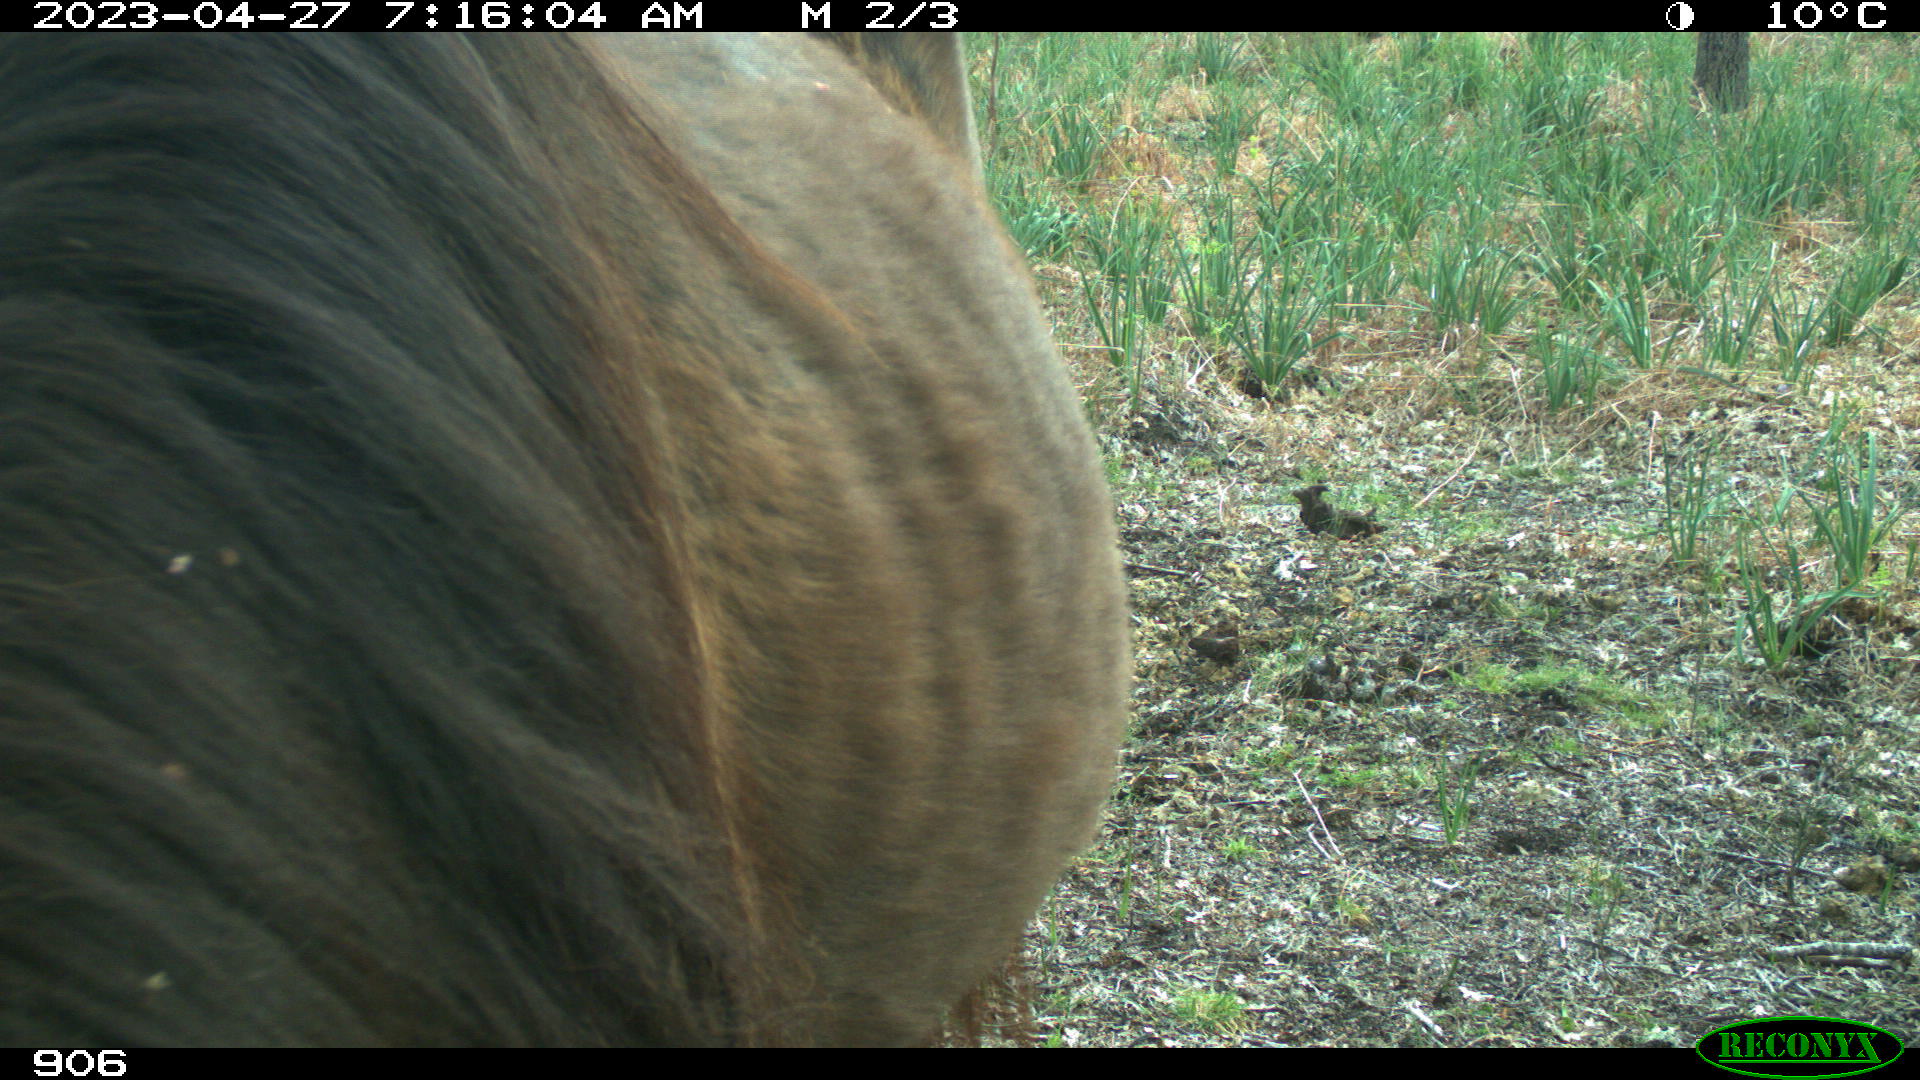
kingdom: Animalia
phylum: Chordata
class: Mammalia
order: Perissodactyla
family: Equidae
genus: Equus
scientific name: Equus caballus
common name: Horse
